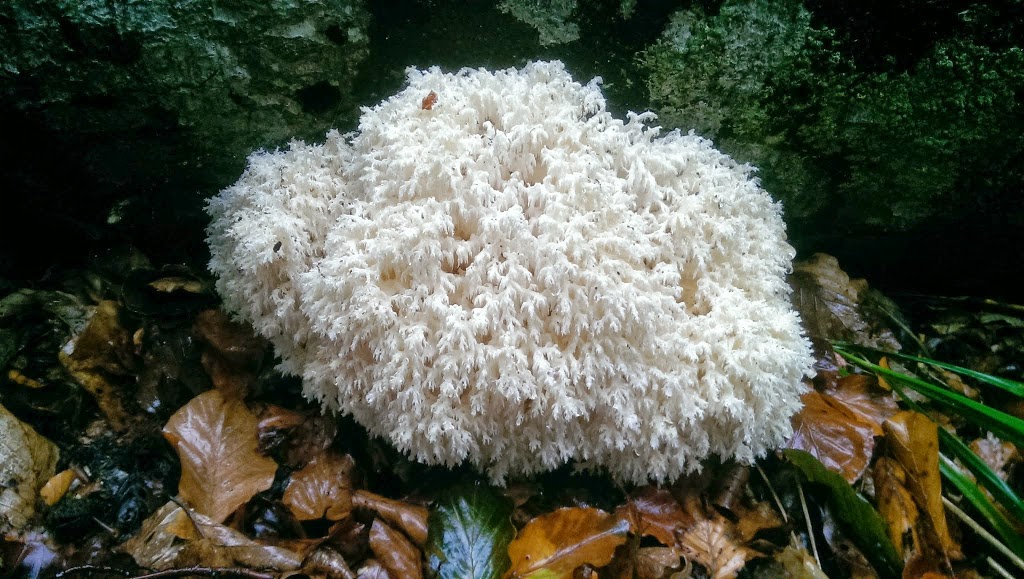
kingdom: Fungi
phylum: Basidiomycota
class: Agaricomycetes
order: Russulales
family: Hericiaceae
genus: Hericium
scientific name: Hericium coralloides
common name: koralpigsvamp
